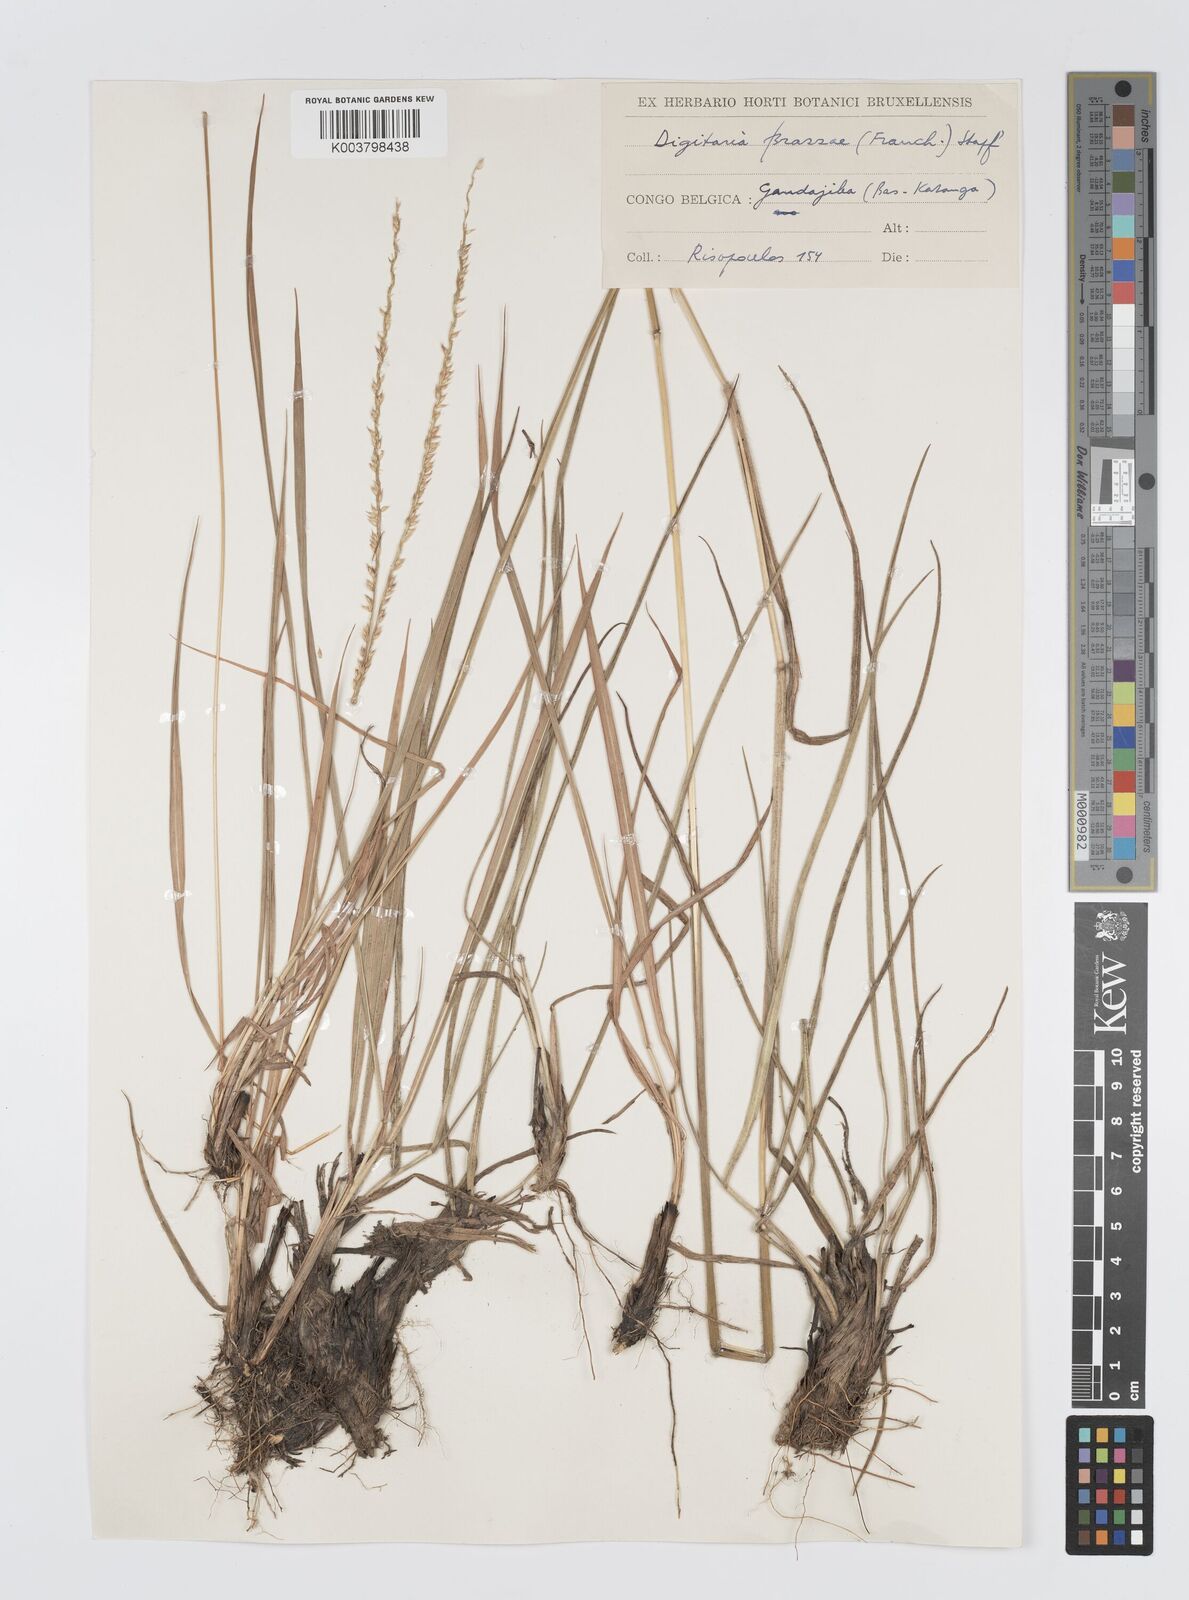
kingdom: Plantae
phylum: Tracheophyta
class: Liliopsida
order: Poales
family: Poaceae
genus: Digitaria
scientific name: Digitaria brazzae
